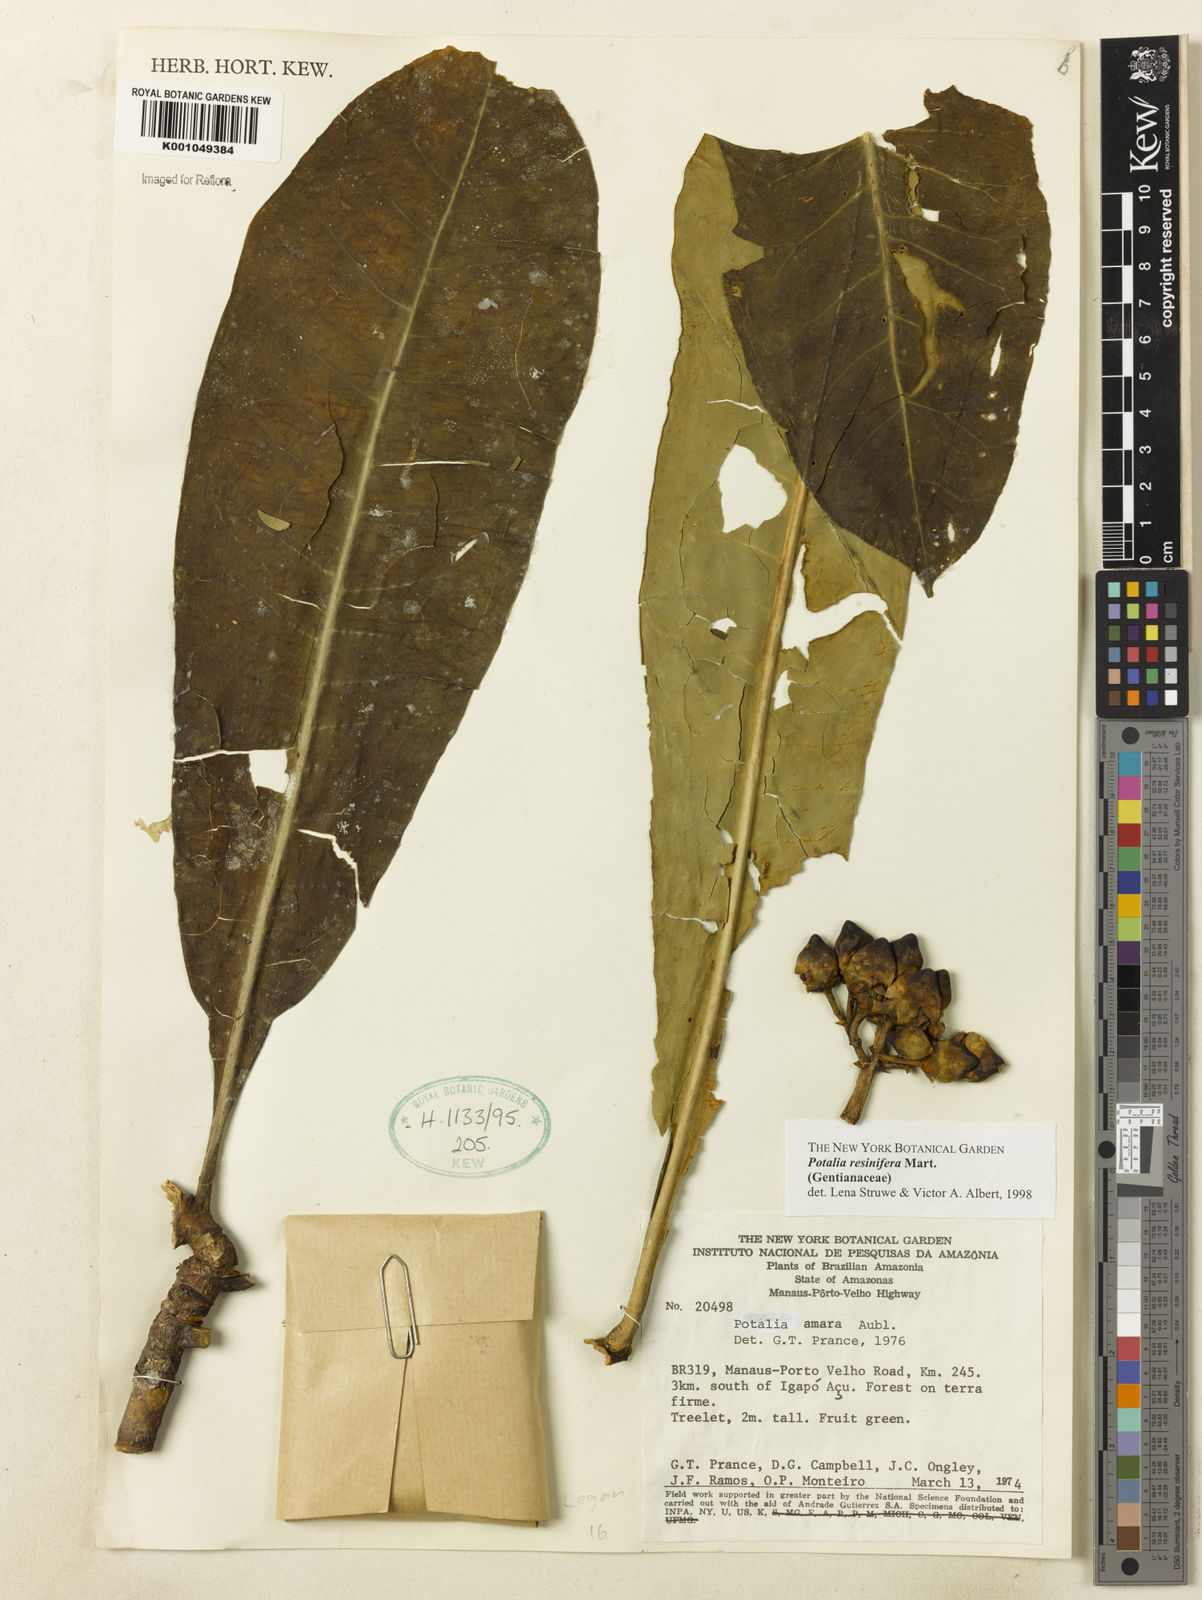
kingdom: Plantae
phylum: Tracheophyta
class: Magnoliopsida
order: Gentianales
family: Gentianaceae
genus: Potalia
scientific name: Potalia resinifera
